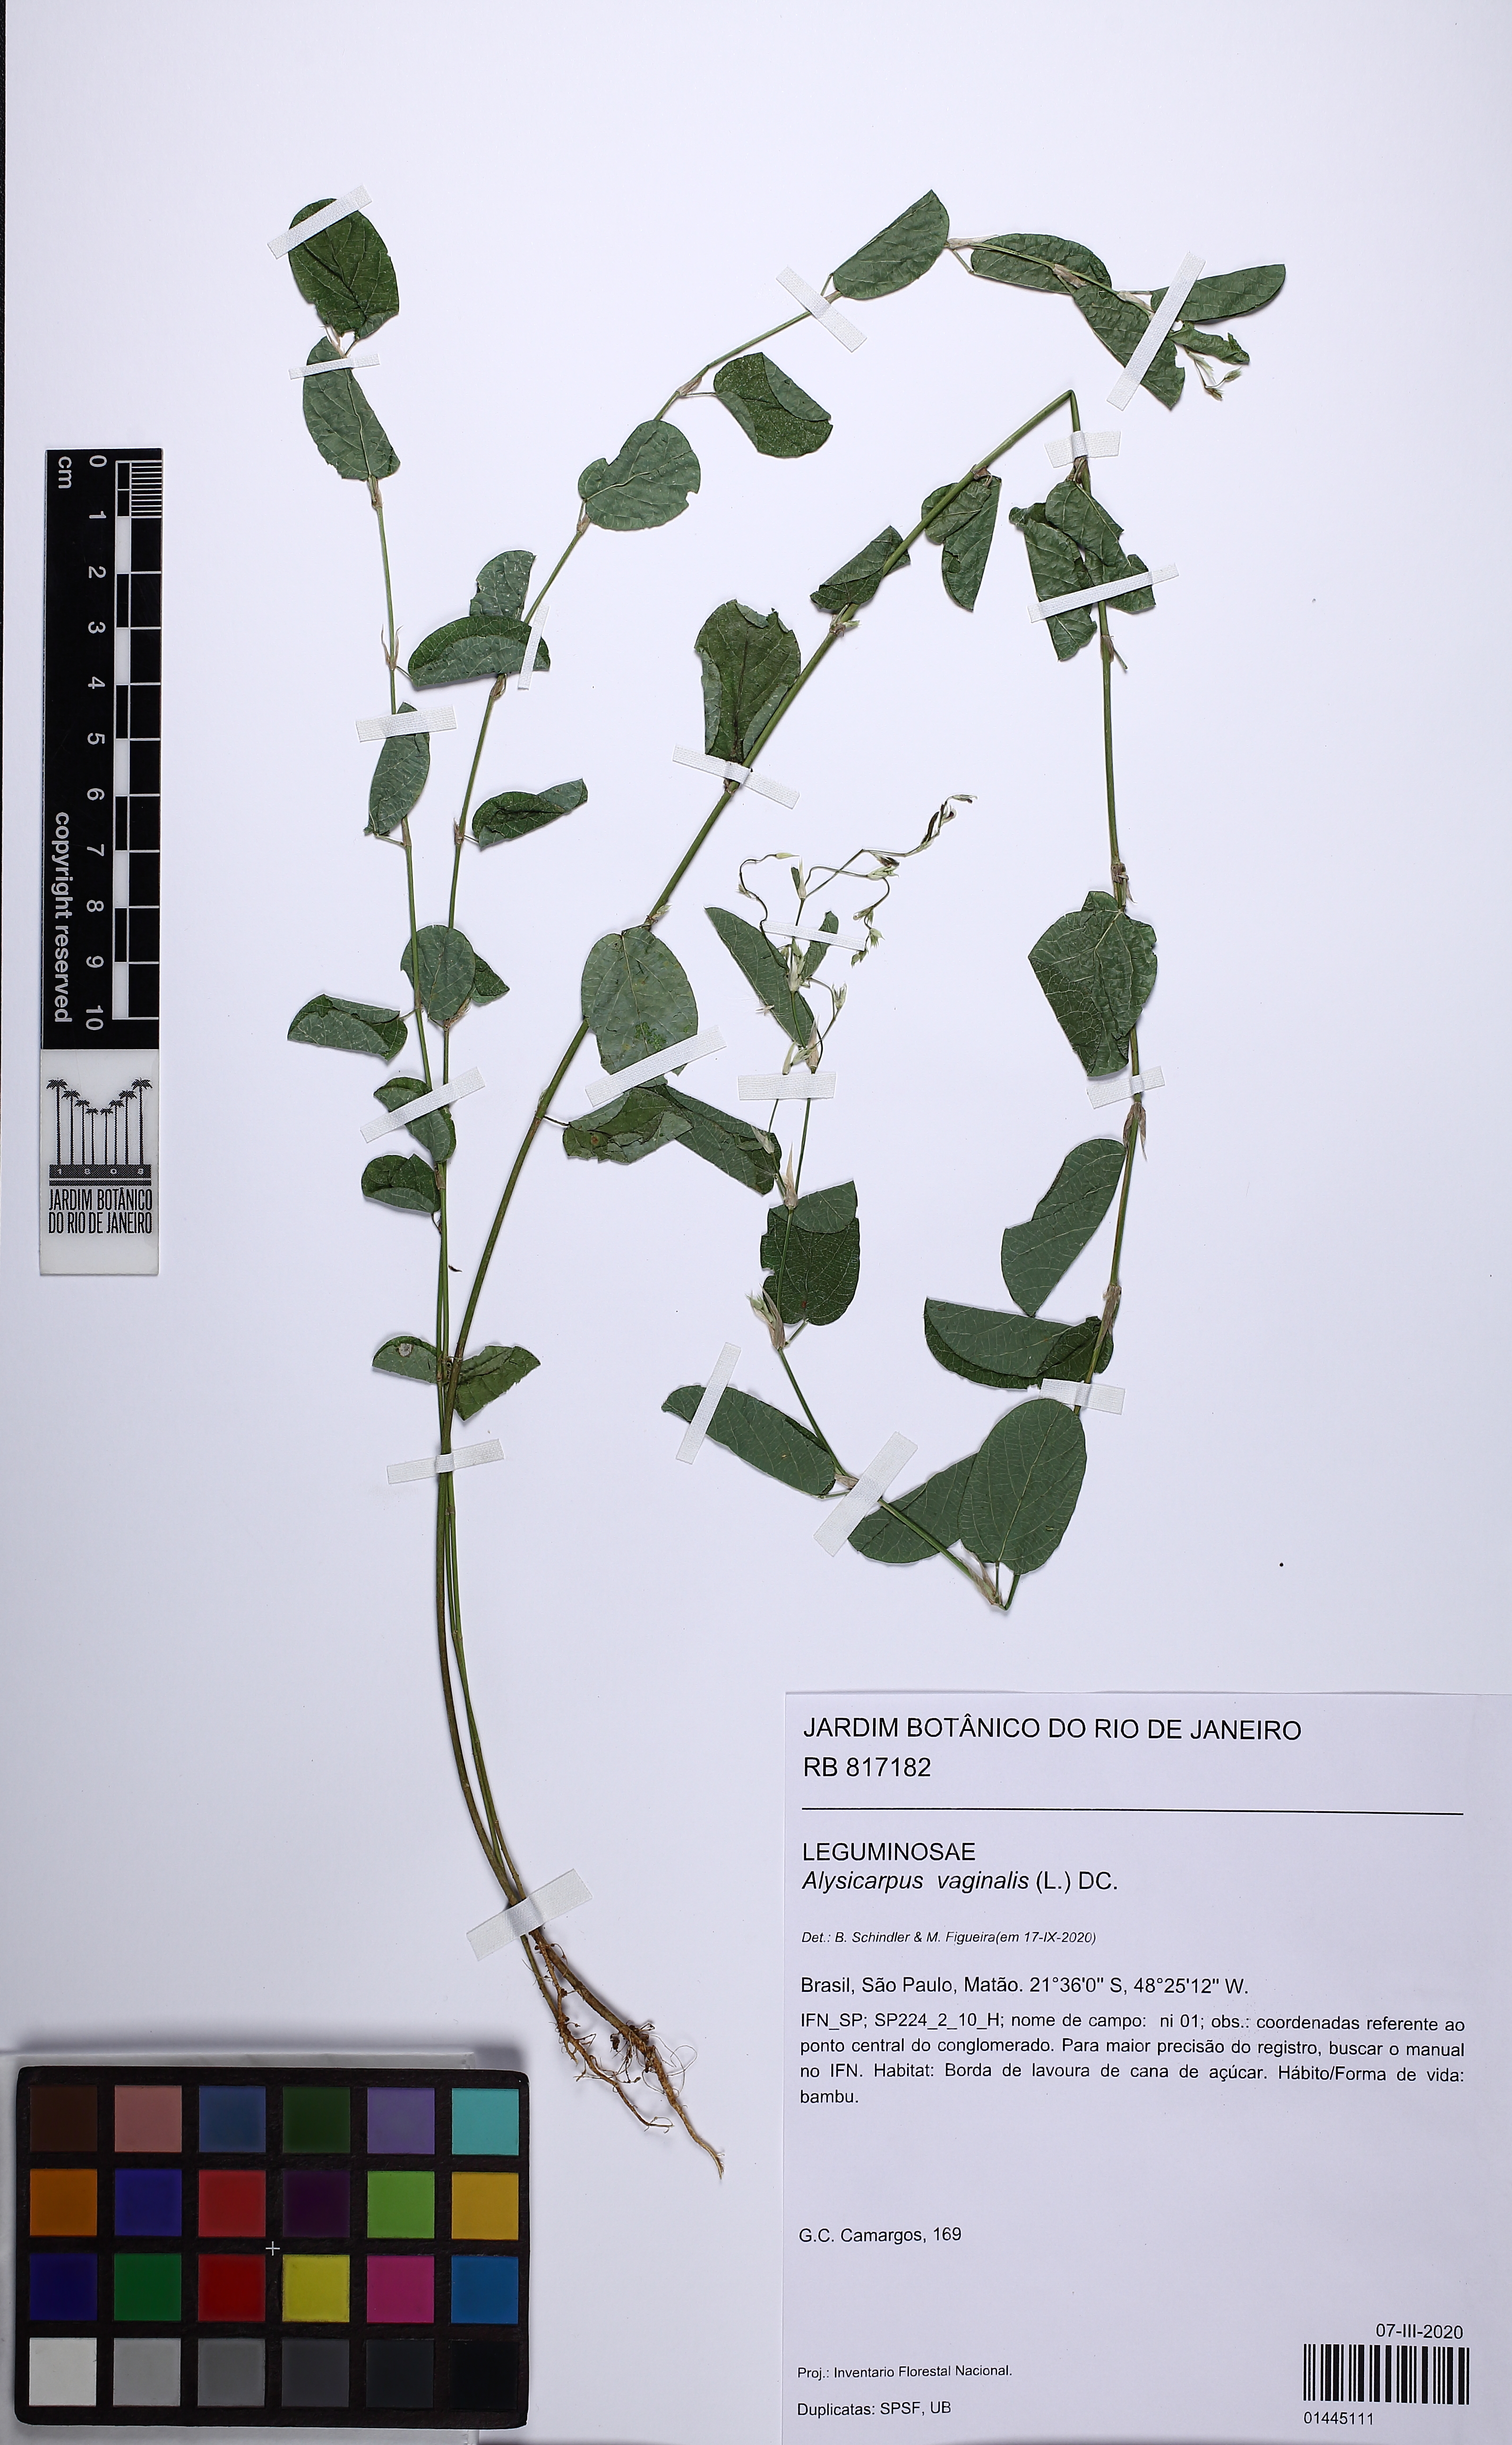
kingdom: Plantae
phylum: Tracheophyta
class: Magnoliopsida
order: Fabales
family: Fabaceae
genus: Alysicarpus
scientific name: Alysicarpus vaginalis
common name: White moneywort
